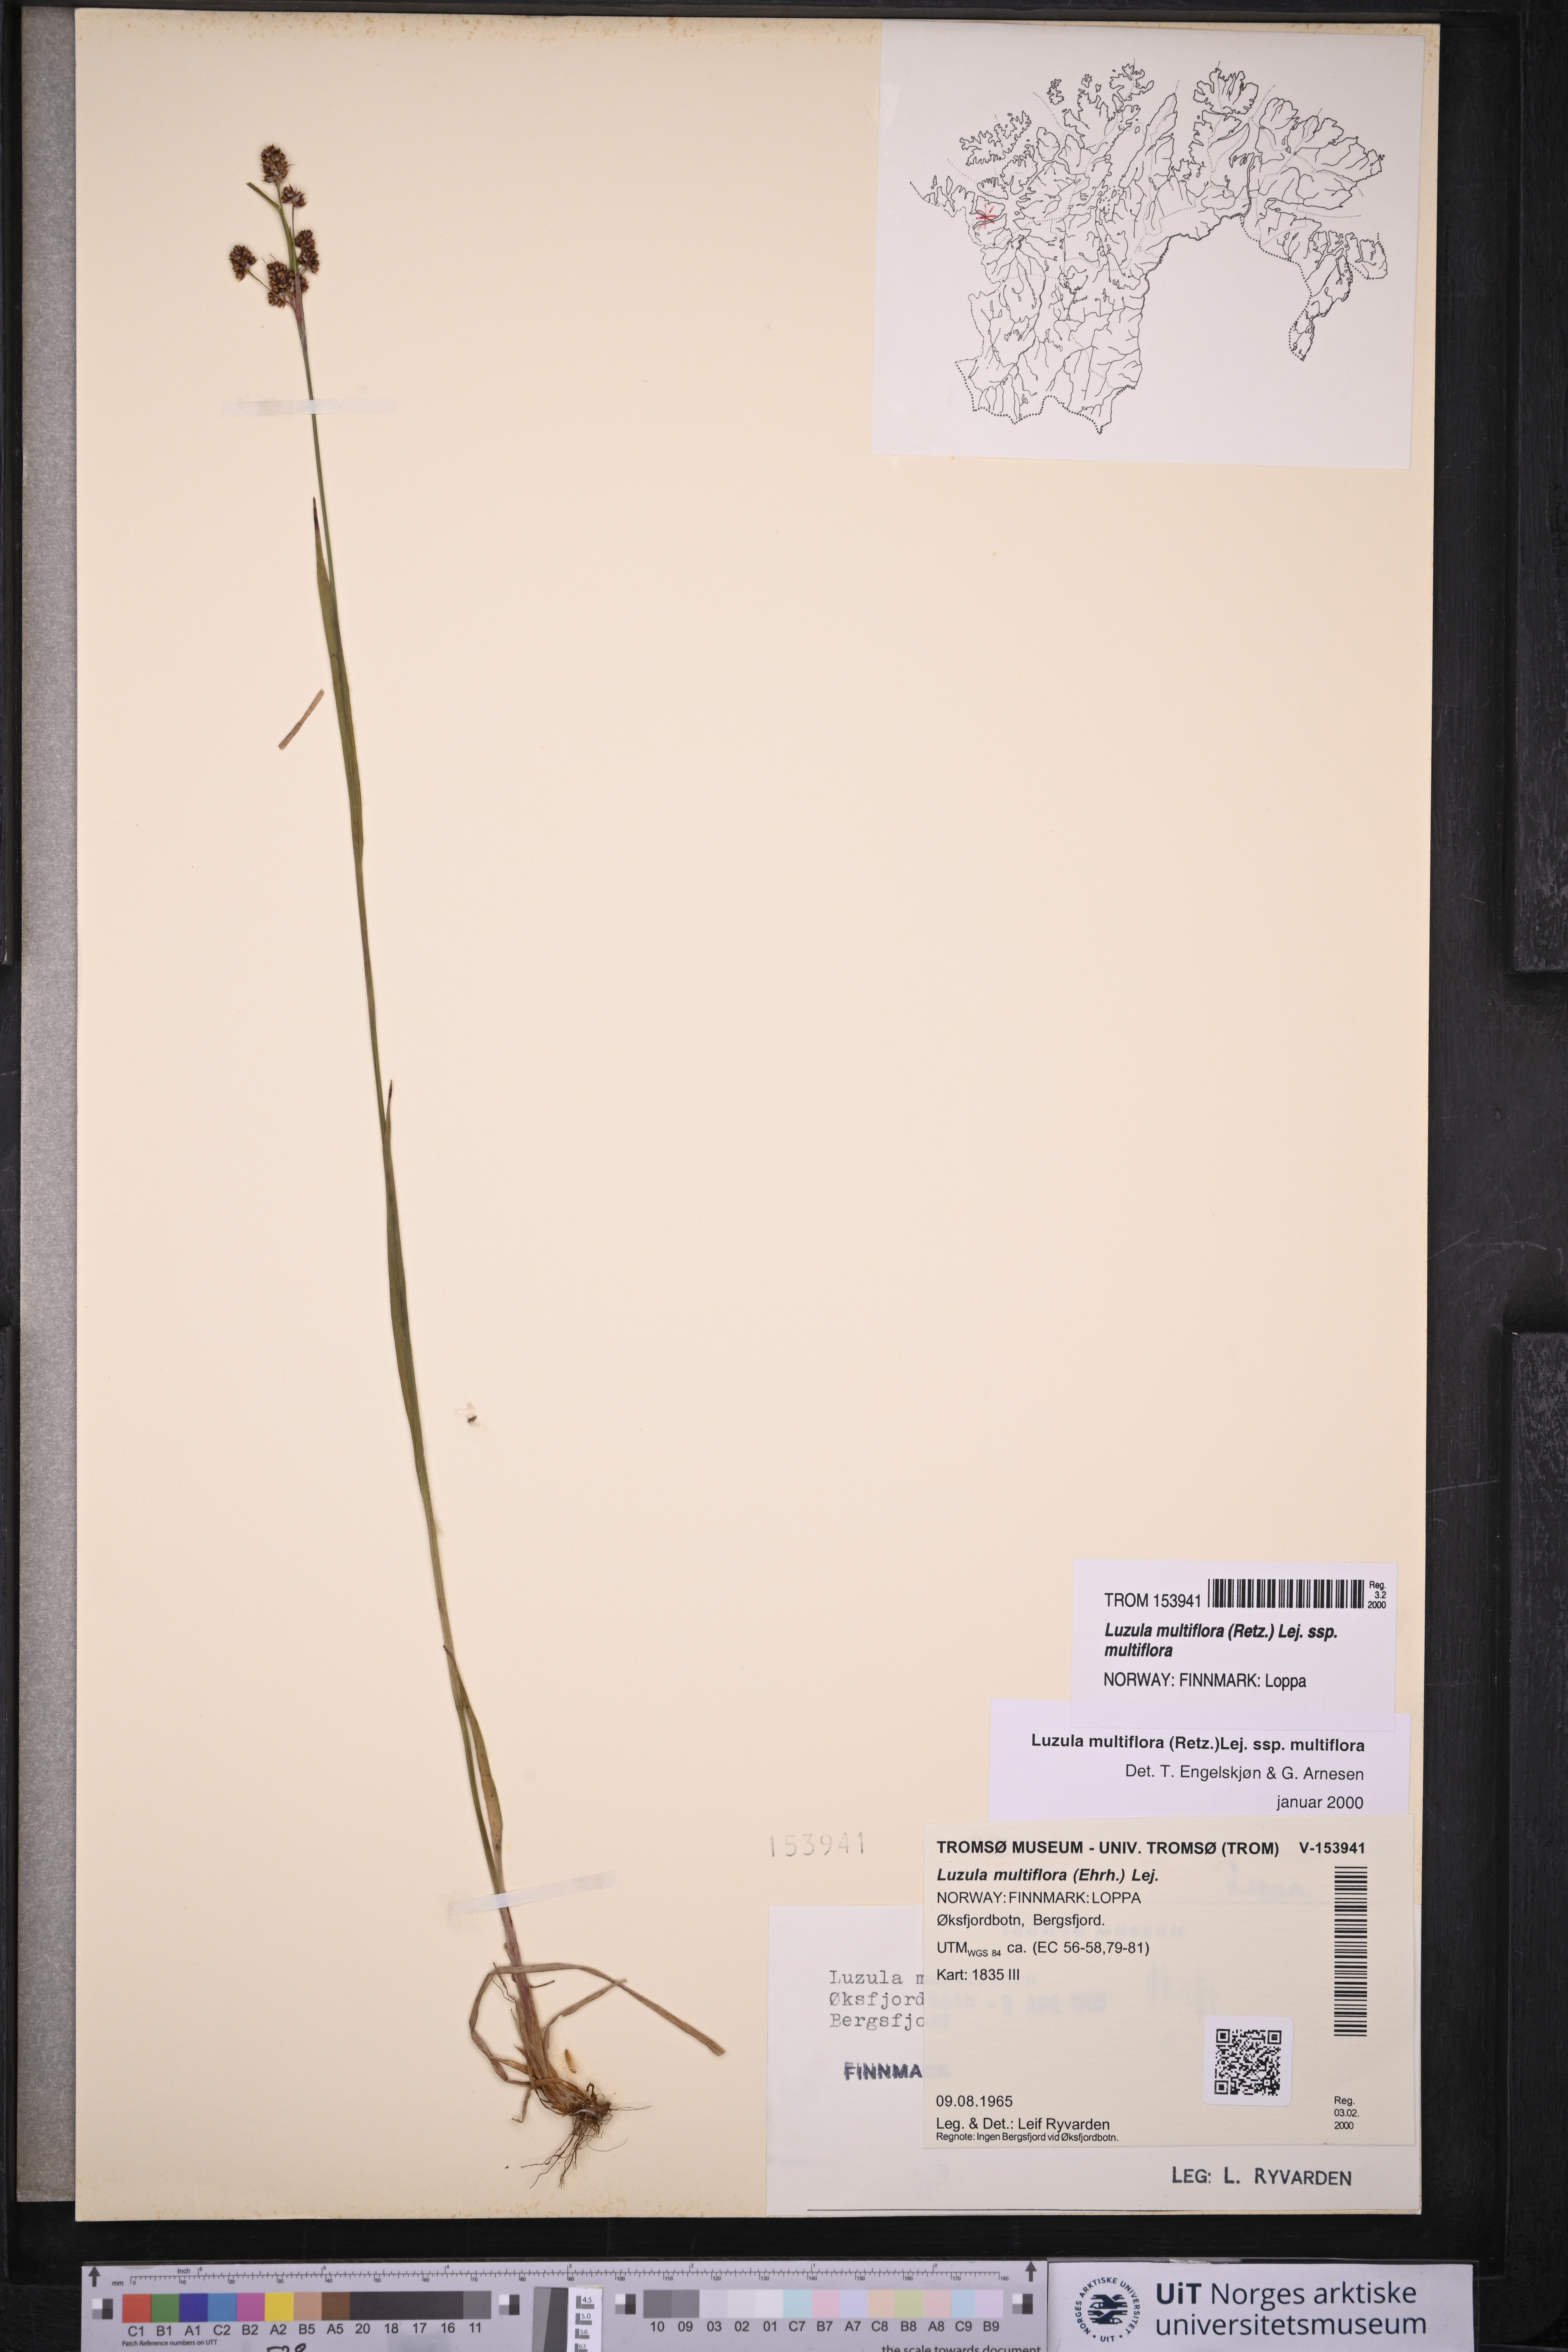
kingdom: Plantae
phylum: Tracheophyta
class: Liliopsida
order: Poales
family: Juncaceae
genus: Luzula
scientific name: Luzula multiflora
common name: Heath wood-rush
